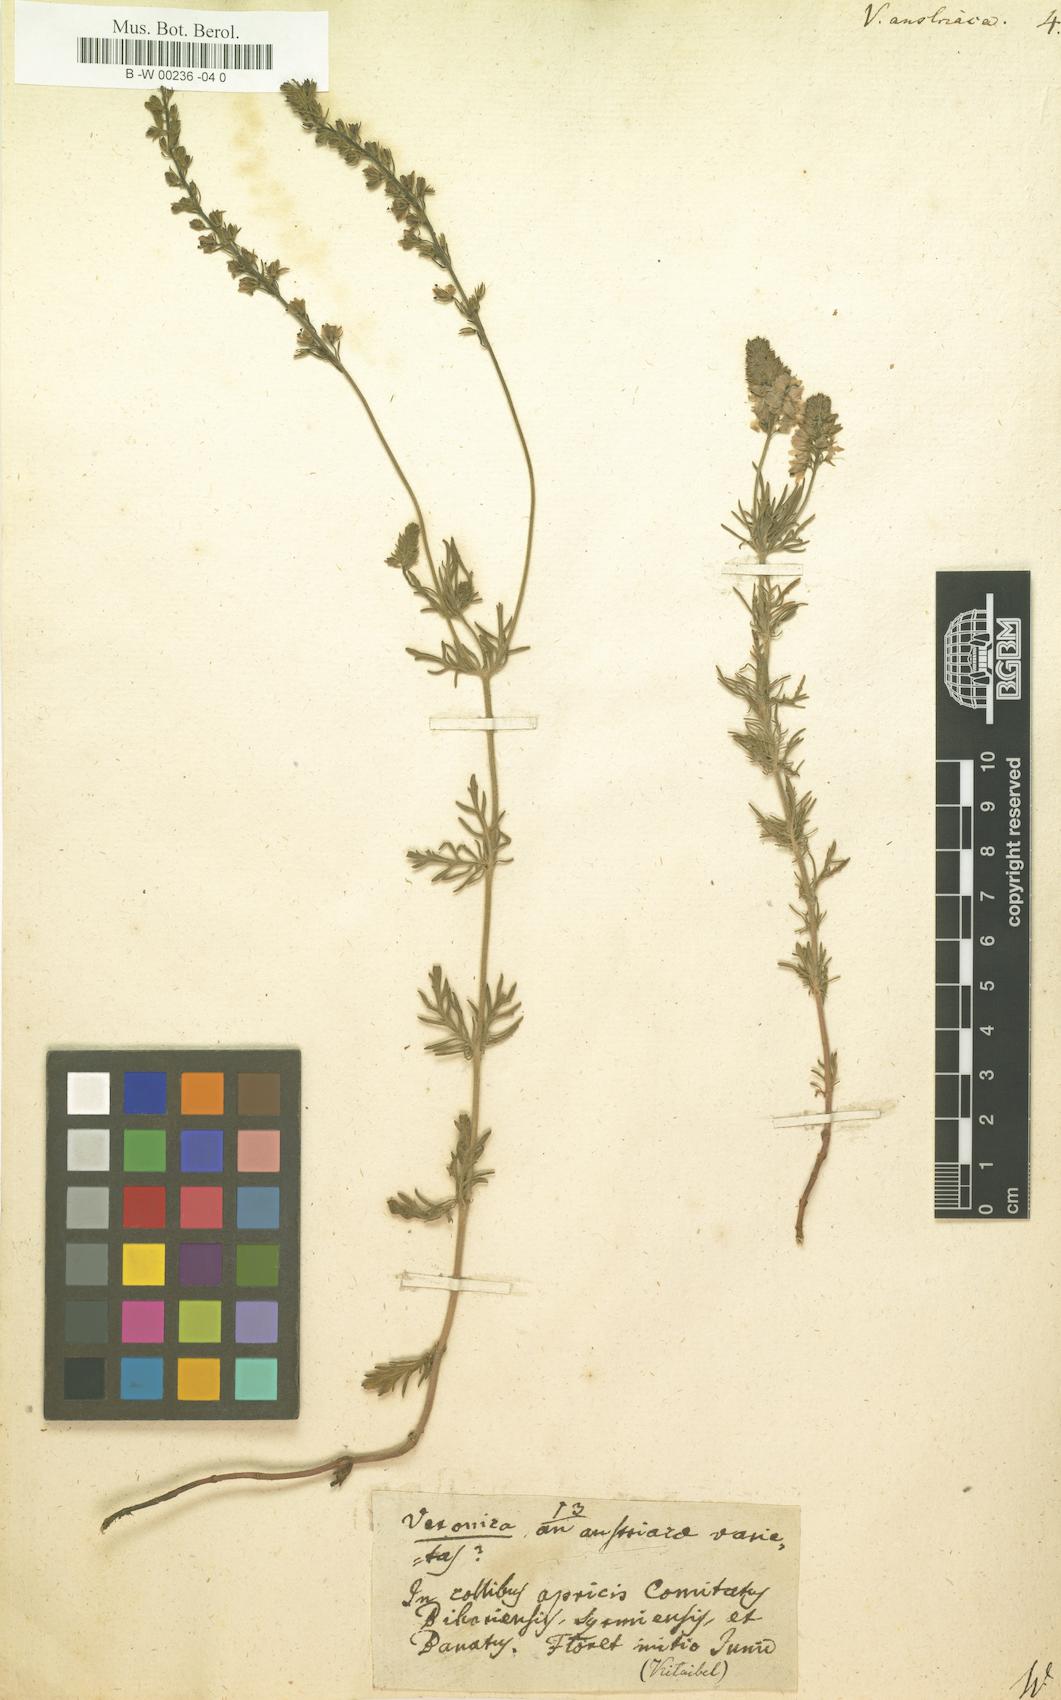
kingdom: Plantae
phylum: Tracheophyta
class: Magnoliopsida
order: Lamiales
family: Plantaginaceae
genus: Veronica
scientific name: Veronica austriaca
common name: Large speedwell
